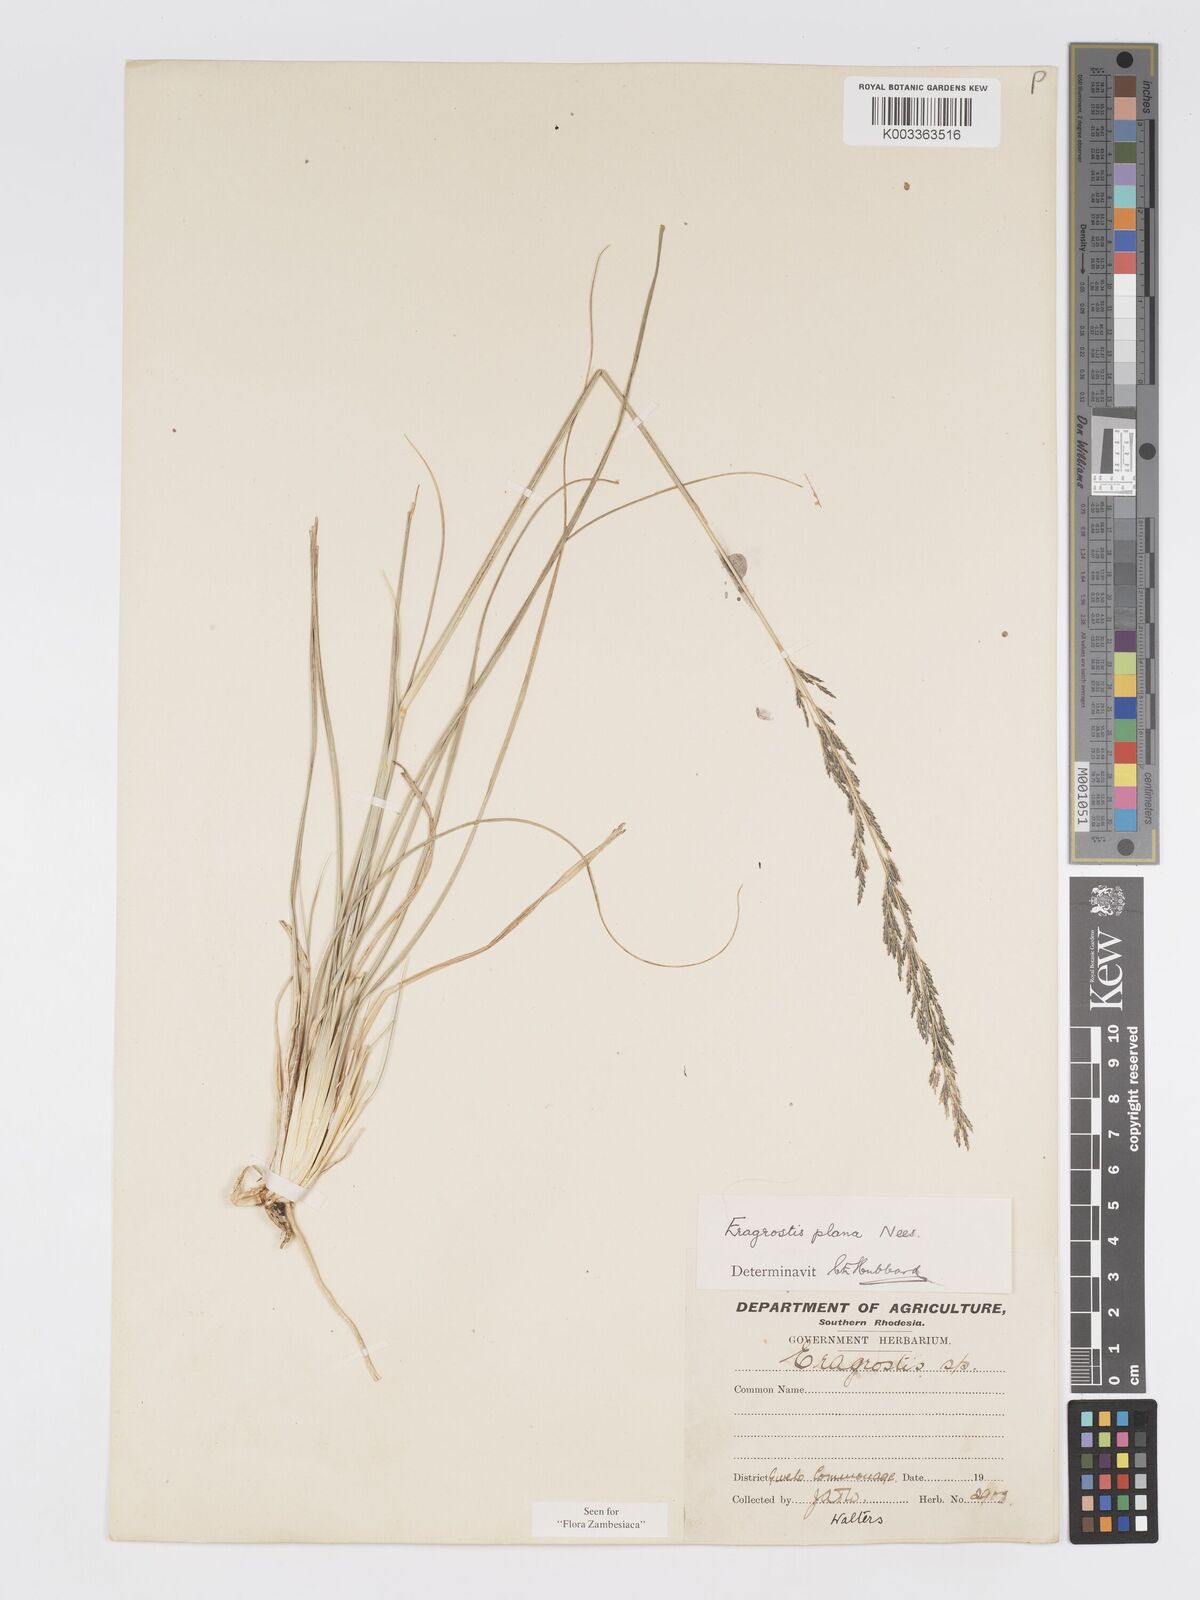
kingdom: Plantae
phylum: Tracheophyta
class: Liliopsida
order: Poales
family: Poaceae
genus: Eragrostis
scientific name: Eragrostis plana
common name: South african lovegrass
